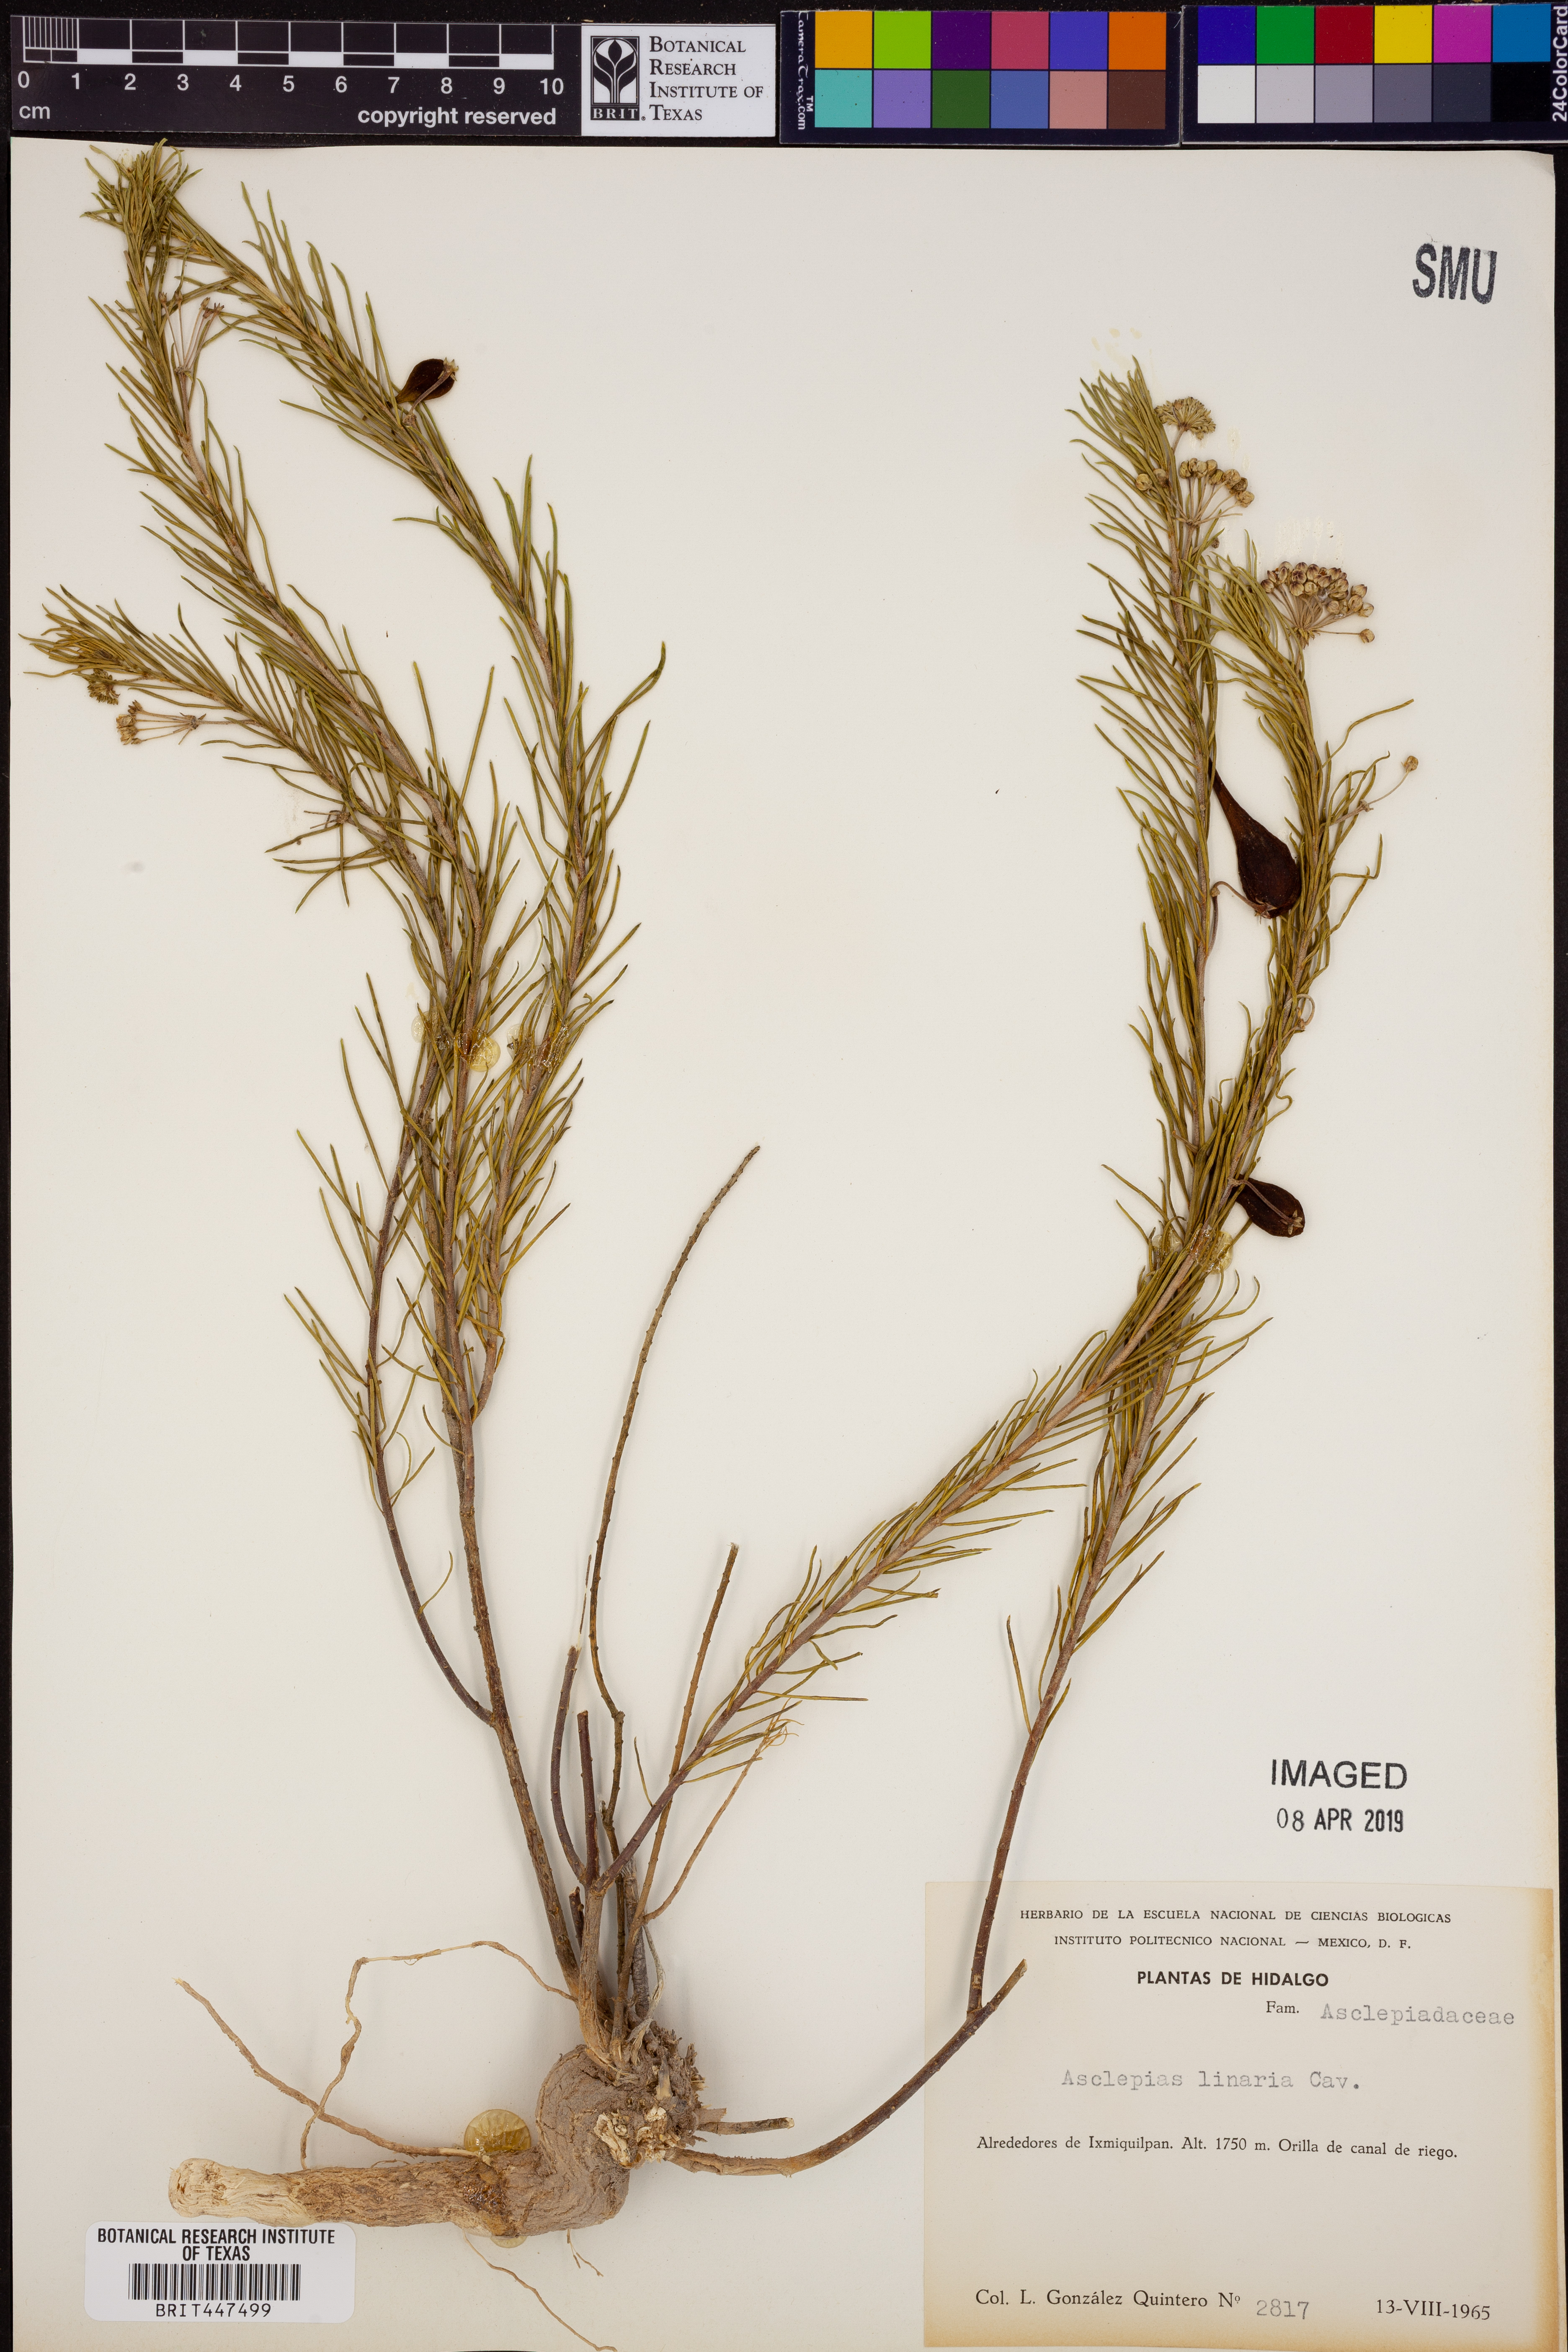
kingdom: Plantae
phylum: Tracheophyta
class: Magnoliopsida
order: Gentianales
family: Apocynaceae
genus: Asclepias
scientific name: Asclepias linaria
